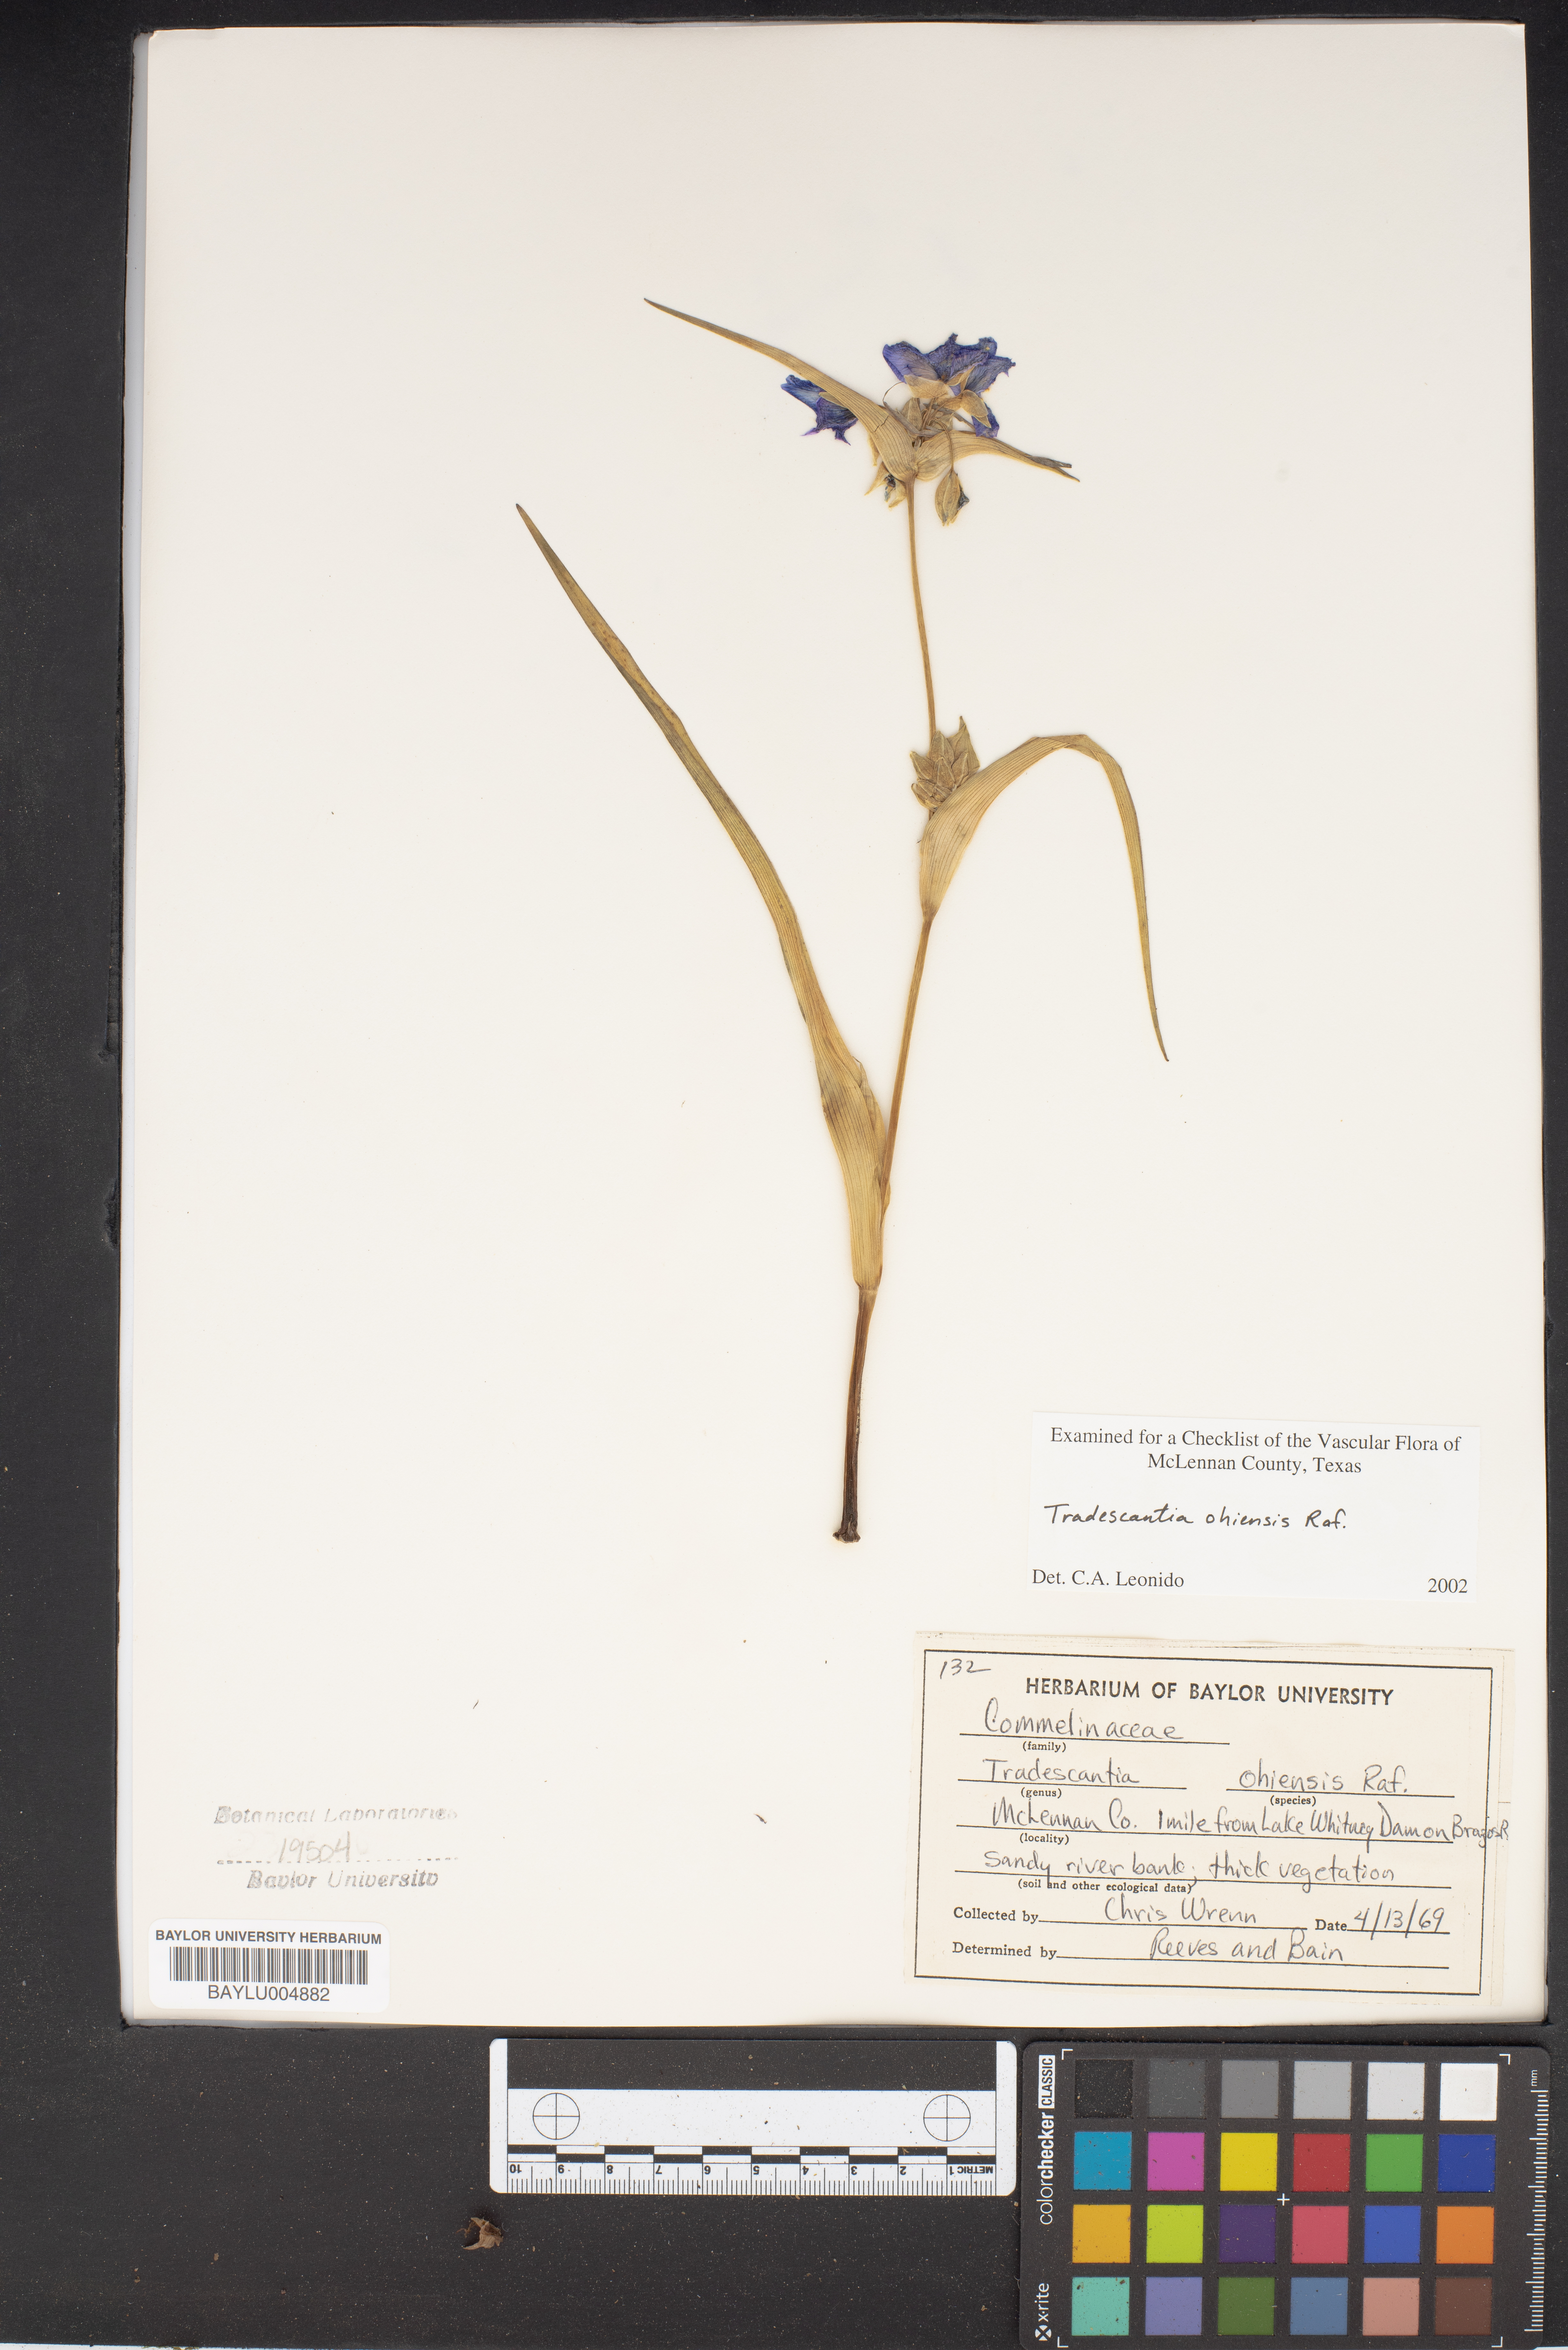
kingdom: Plantae
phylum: Tracheophyta
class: Liliopsida
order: Commelinales
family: Commelinaceae
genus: Tradescantia
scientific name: Tradescantia ohiensis
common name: Ohio spiderwort
